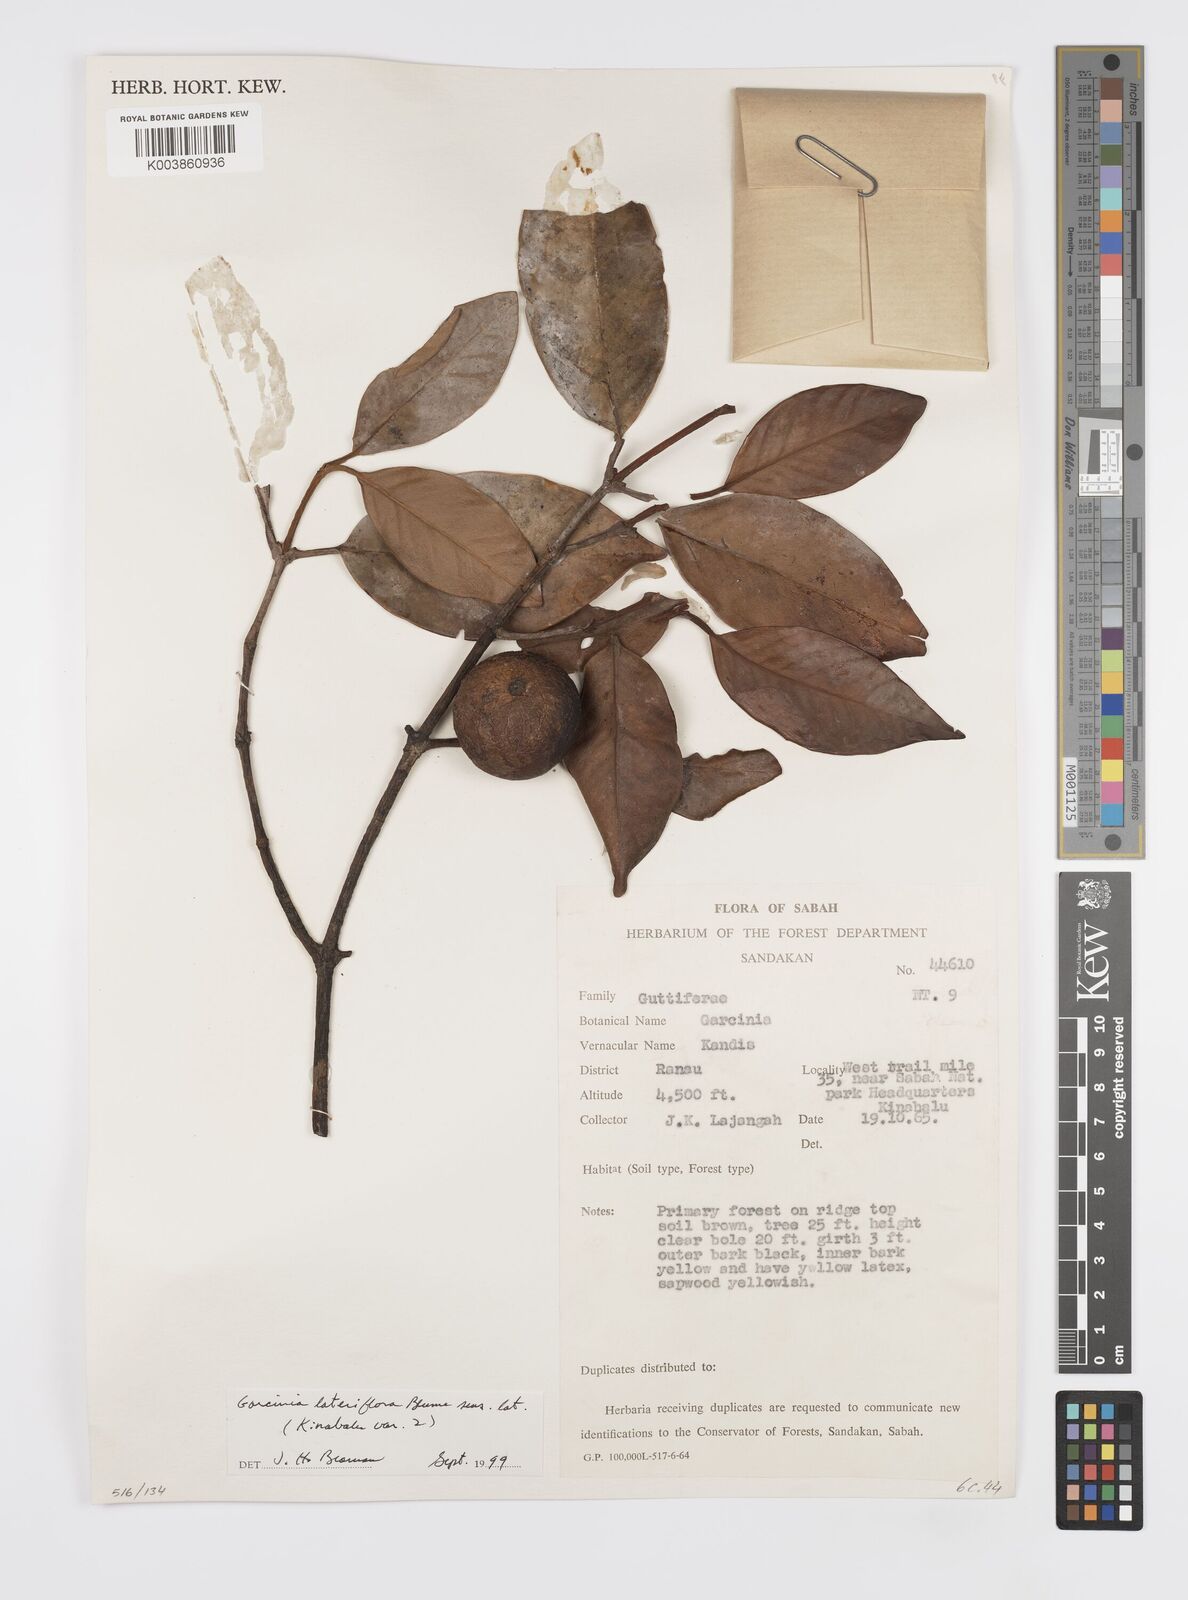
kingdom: Plantae
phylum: Tracheophyta
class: Magnoliopsida
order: Malpighiales
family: Clusiaceae
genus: Garcinia
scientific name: Garcinia lateriflora
